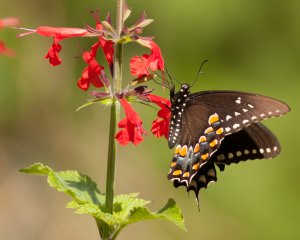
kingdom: Animalia
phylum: Arthropoda
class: Insecta
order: Lepidoptera
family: Papilionidae
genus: Pterourus
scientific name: Pterourus troilus
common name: Spicebush Swallowtail
